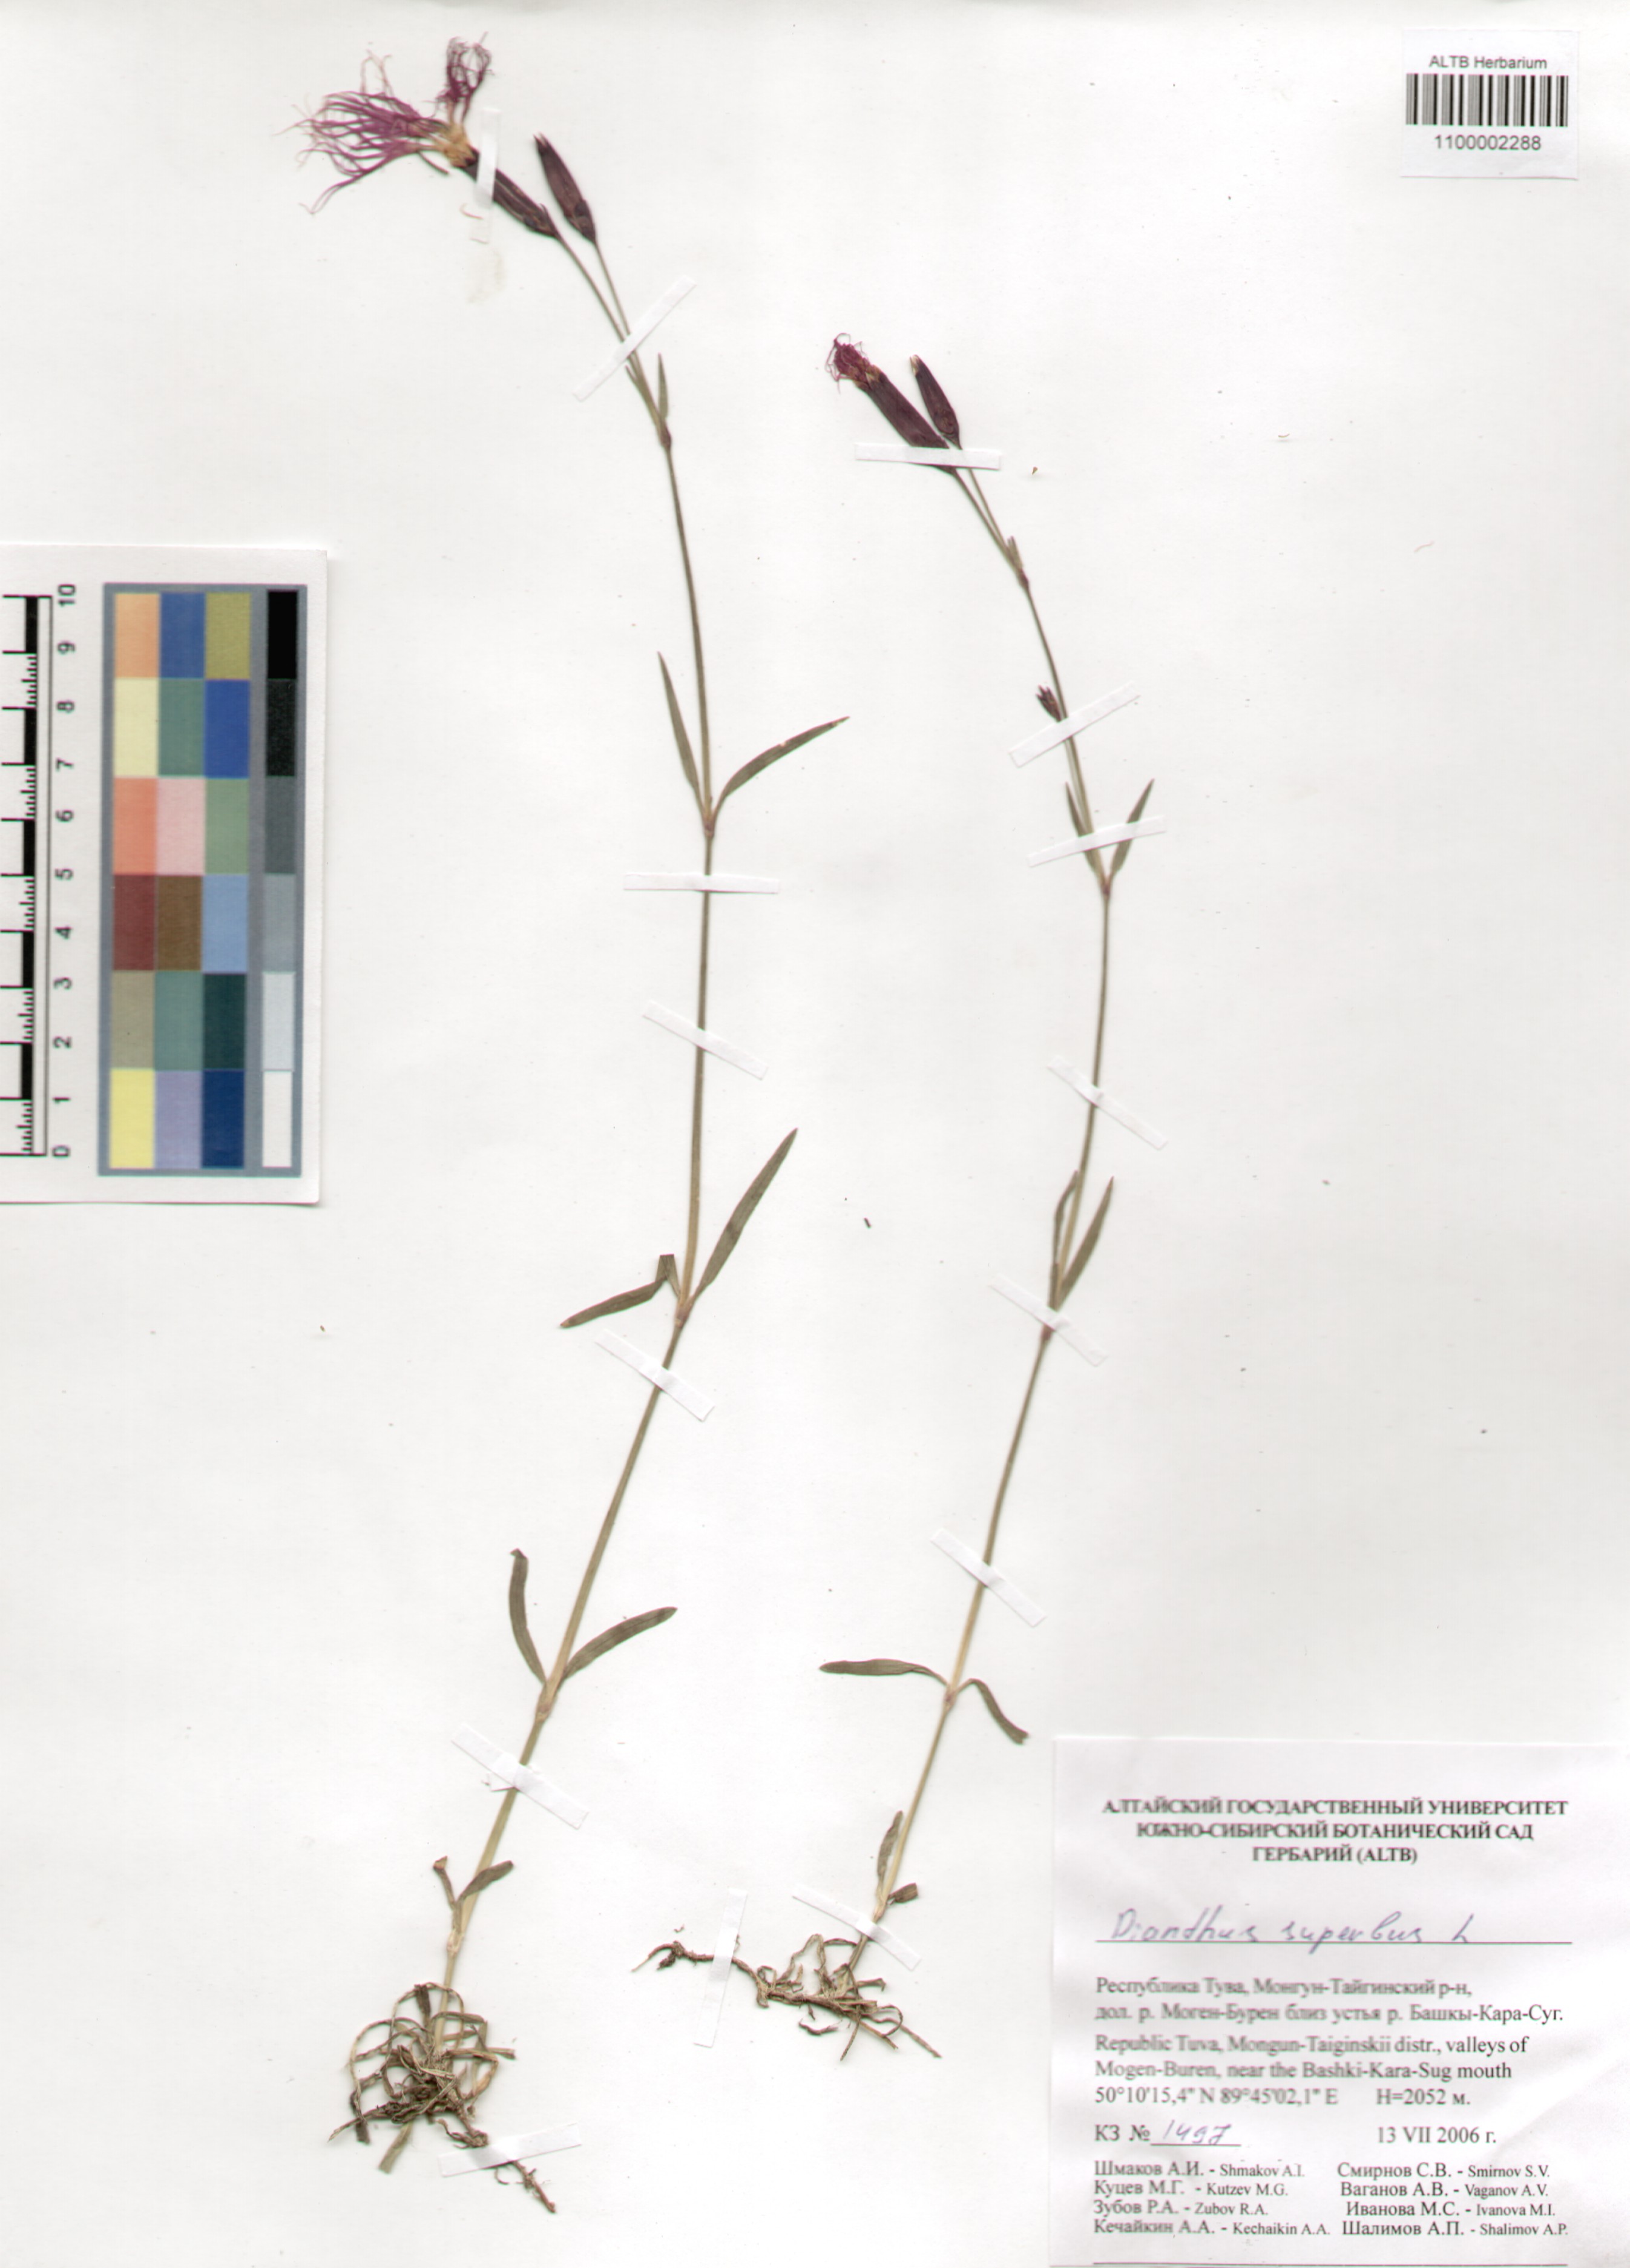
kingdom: Plantae
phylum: Tracheophyta
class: Magnoliopsida
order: Caryophyllales
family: Caryophyllaceae
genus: Dianthus
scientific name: Dianthus superbus
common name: Fringed pink
